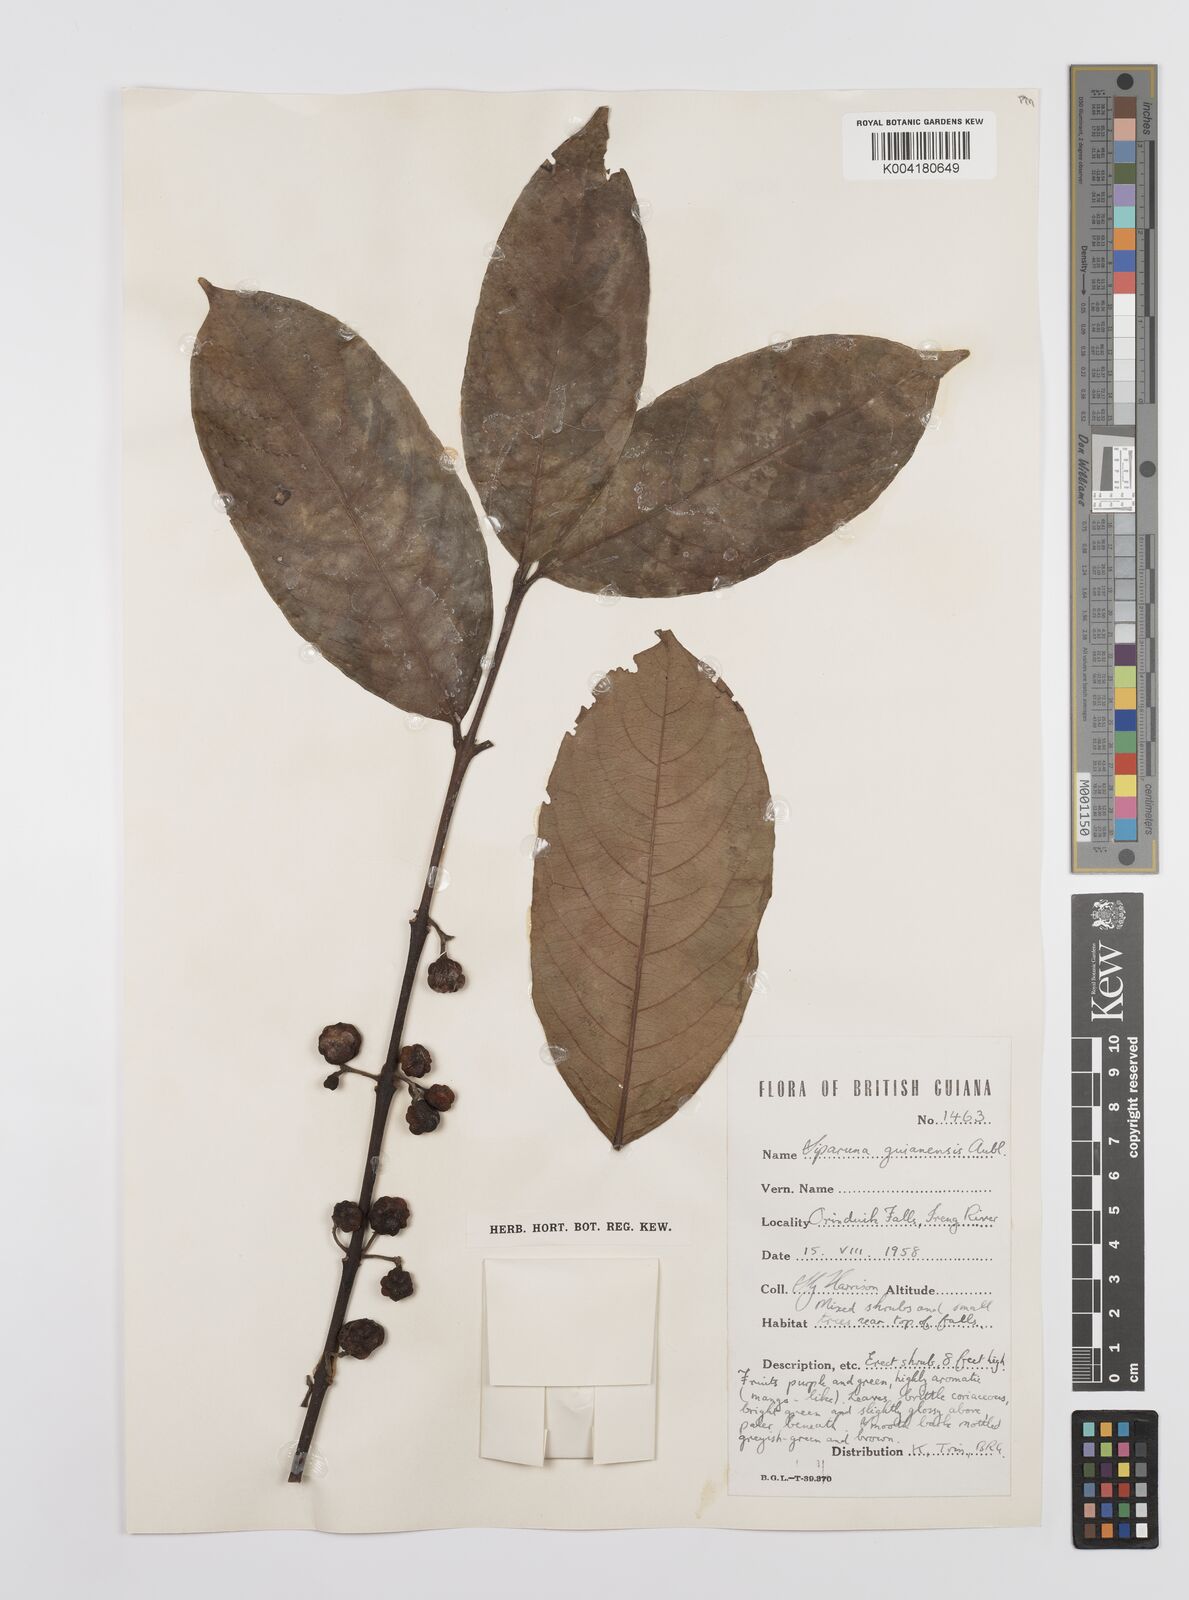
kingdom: Plantae
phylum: Tracheophyta
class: Magnoliopsida
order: Laurales
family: Siparunaceae
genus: Siparuna
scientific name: Siparuna guianensis
